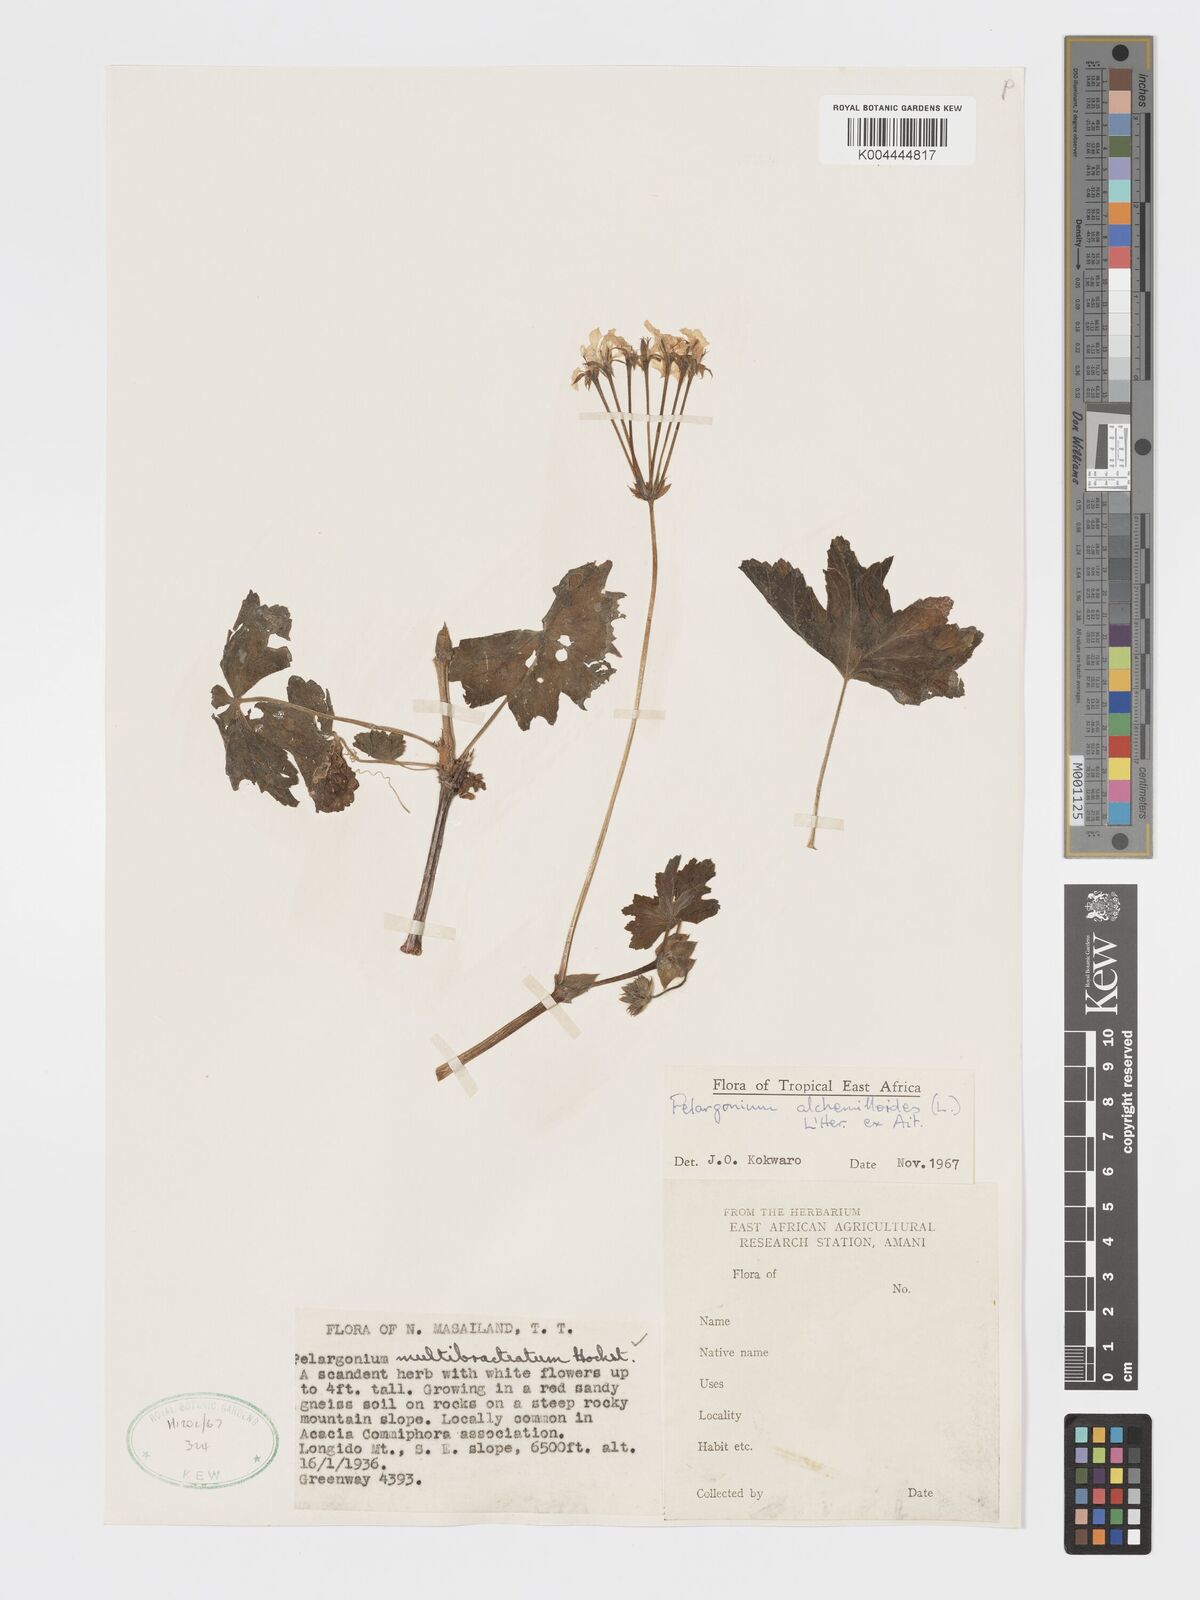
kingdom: Plantae
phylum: Tracheophyta
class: Magnoliopsida
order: Geraniales
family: Geraniaceae
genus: Pelargonium
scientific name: Pelargonium alchemilloides
